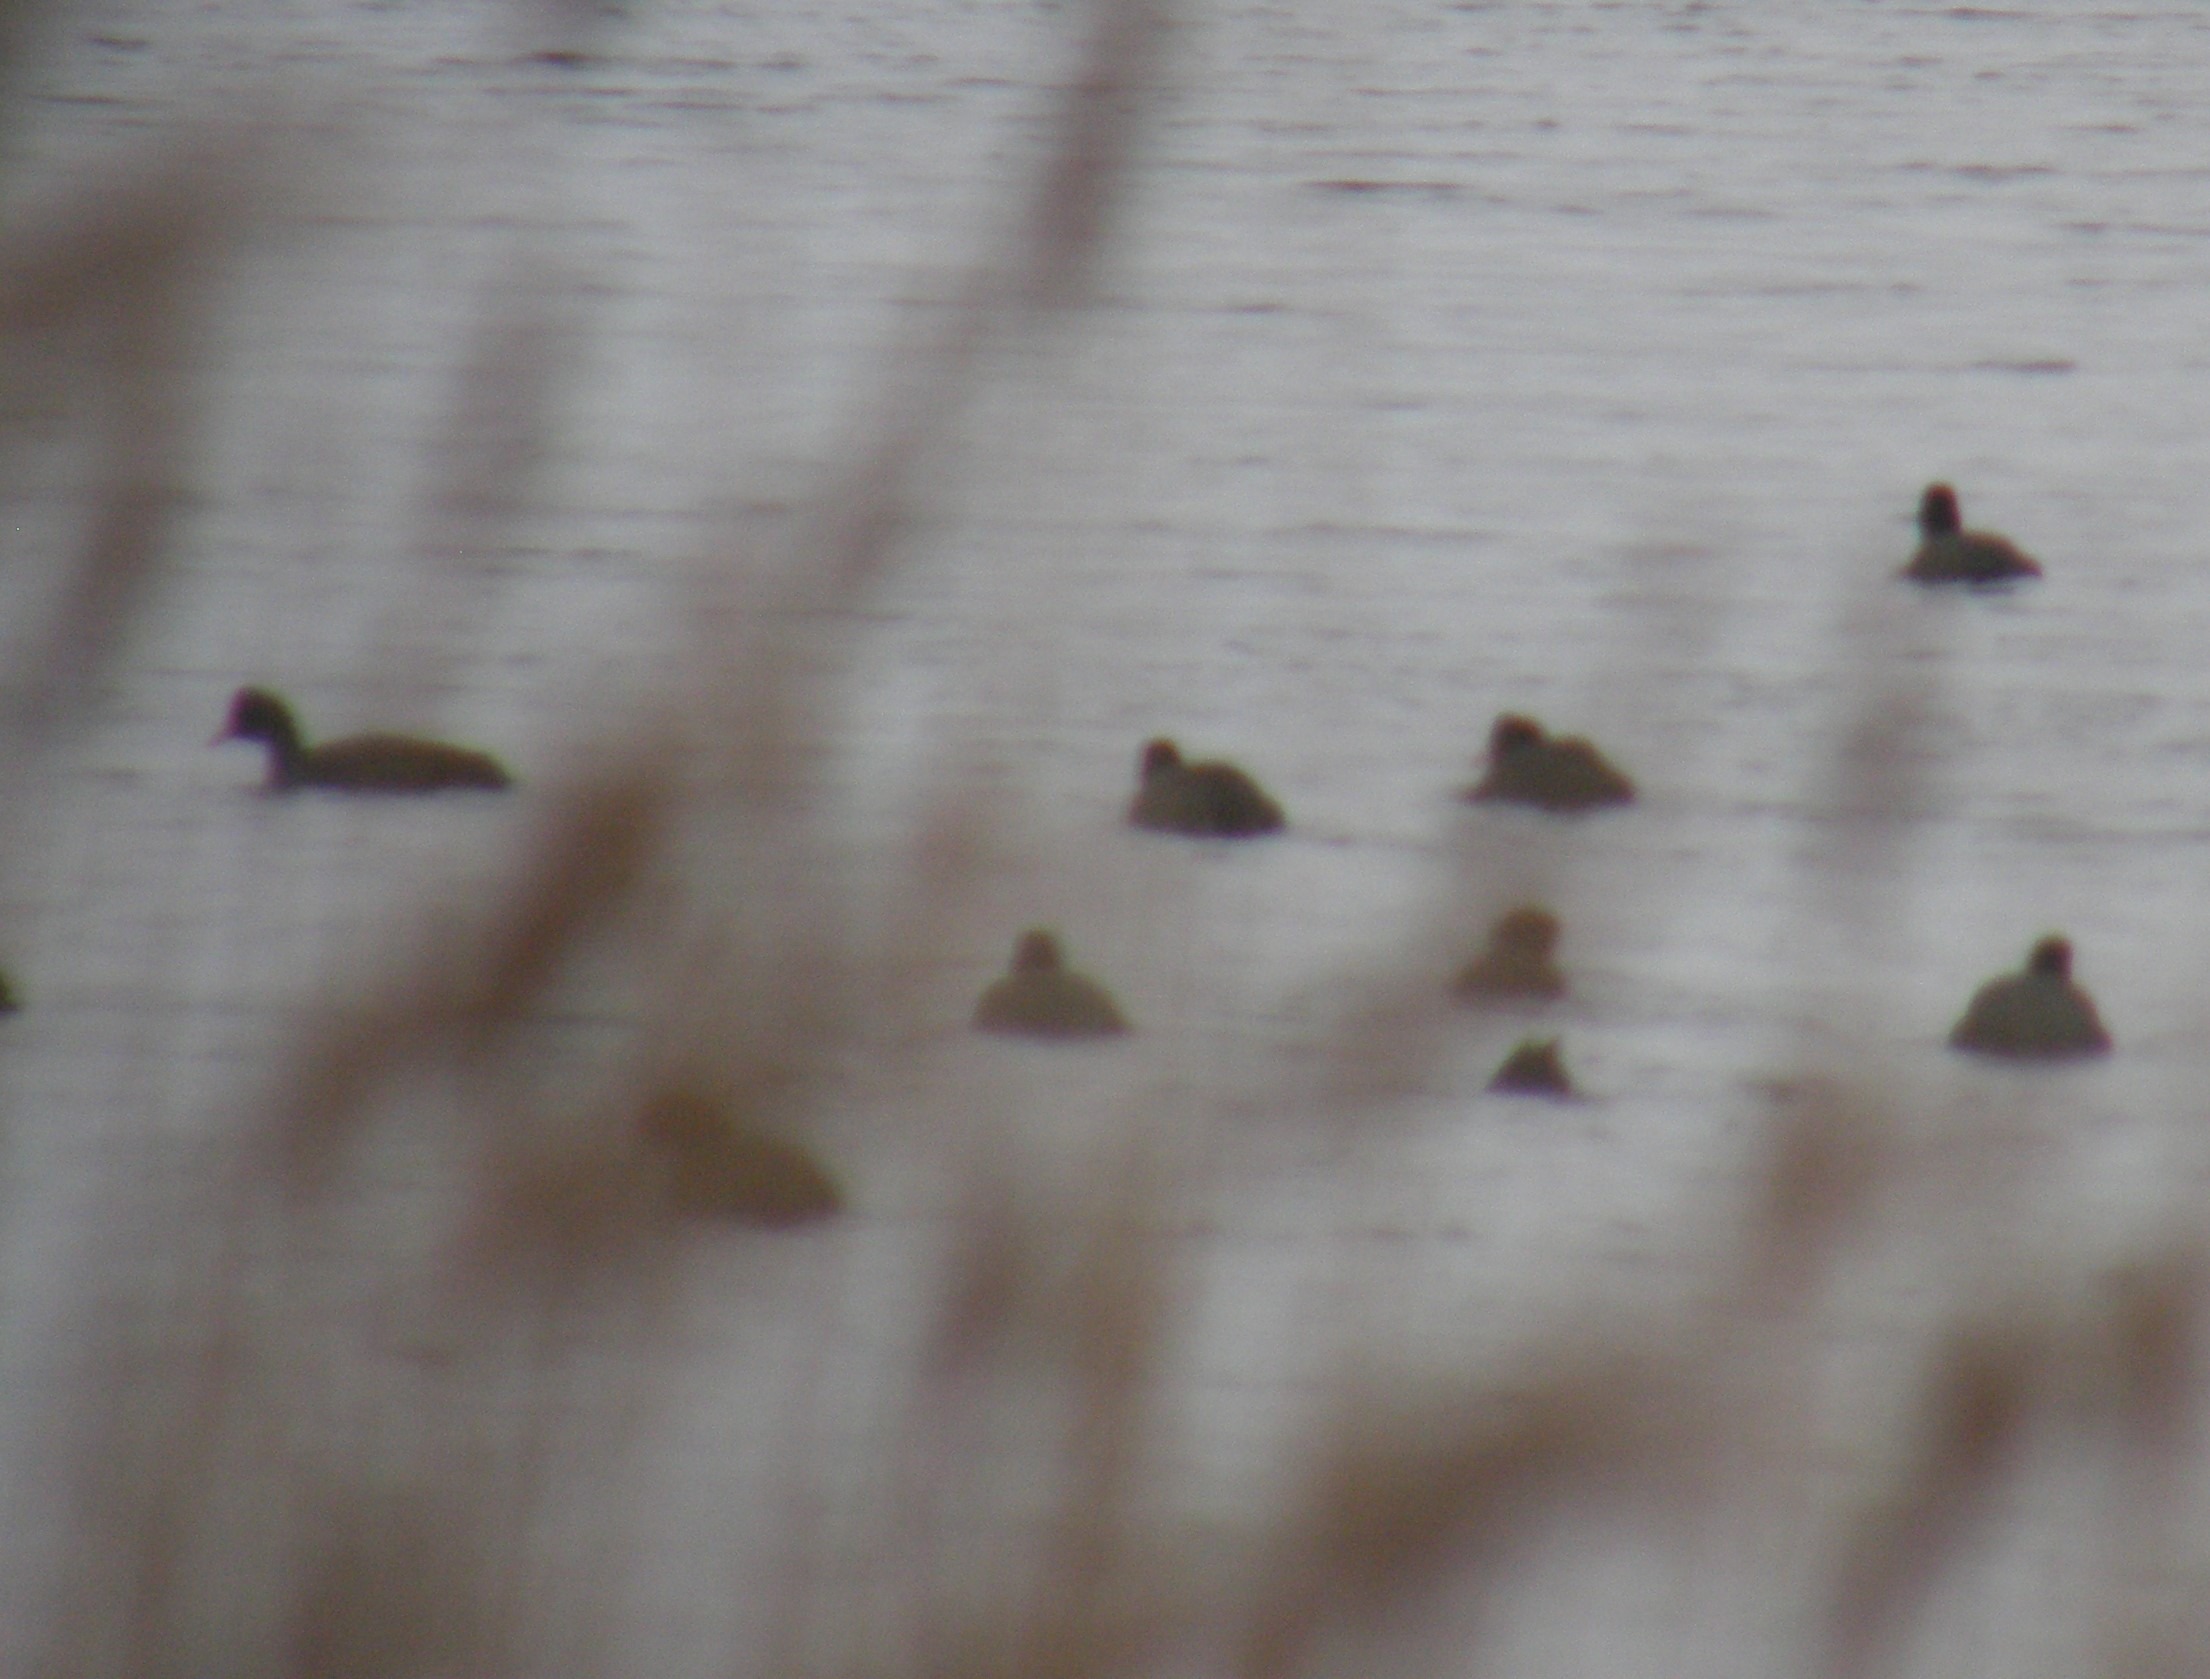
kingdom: Animalia
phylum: Chordata
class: Aves
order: Gruiformes
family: Rallidae
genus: Fulica
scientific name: Fulica atra
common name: Blishøne
